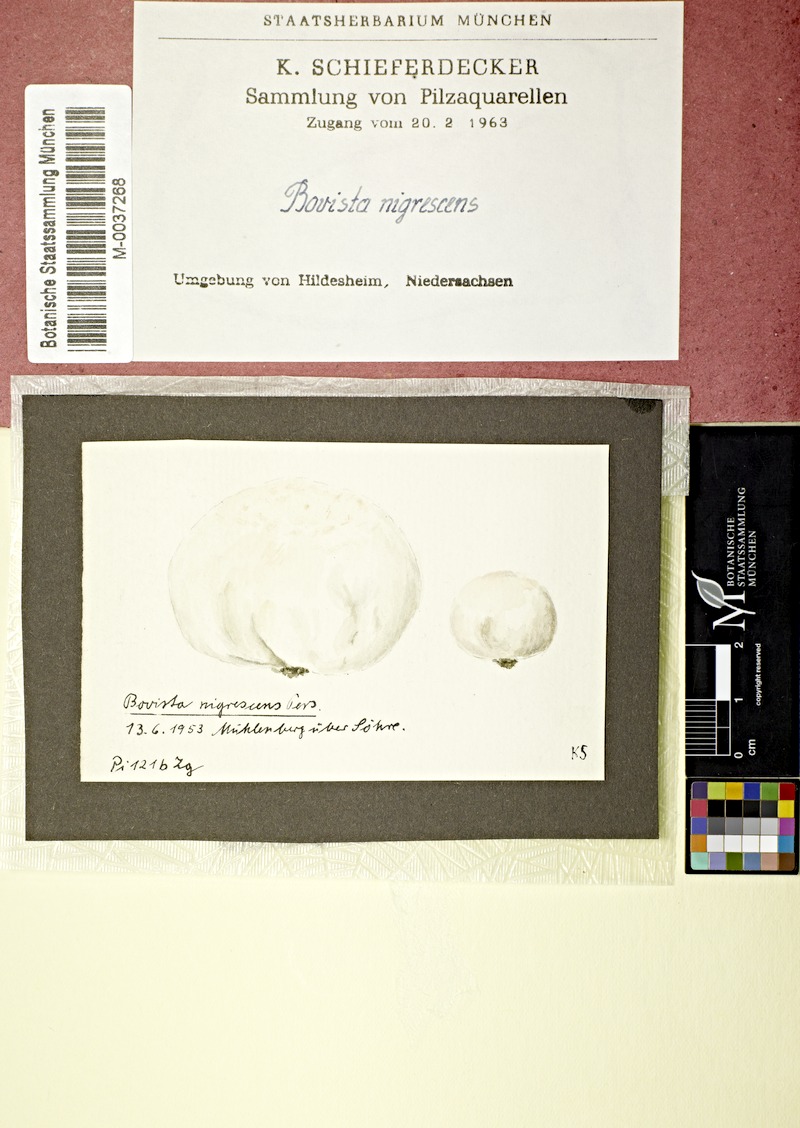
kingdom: Fungi
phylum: Basidiomycota
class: Agaricomycetes
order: Agaricales
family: Lycoperdaceae
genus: Bovista
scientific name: Bovista nigrescens
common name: Brown puffball
